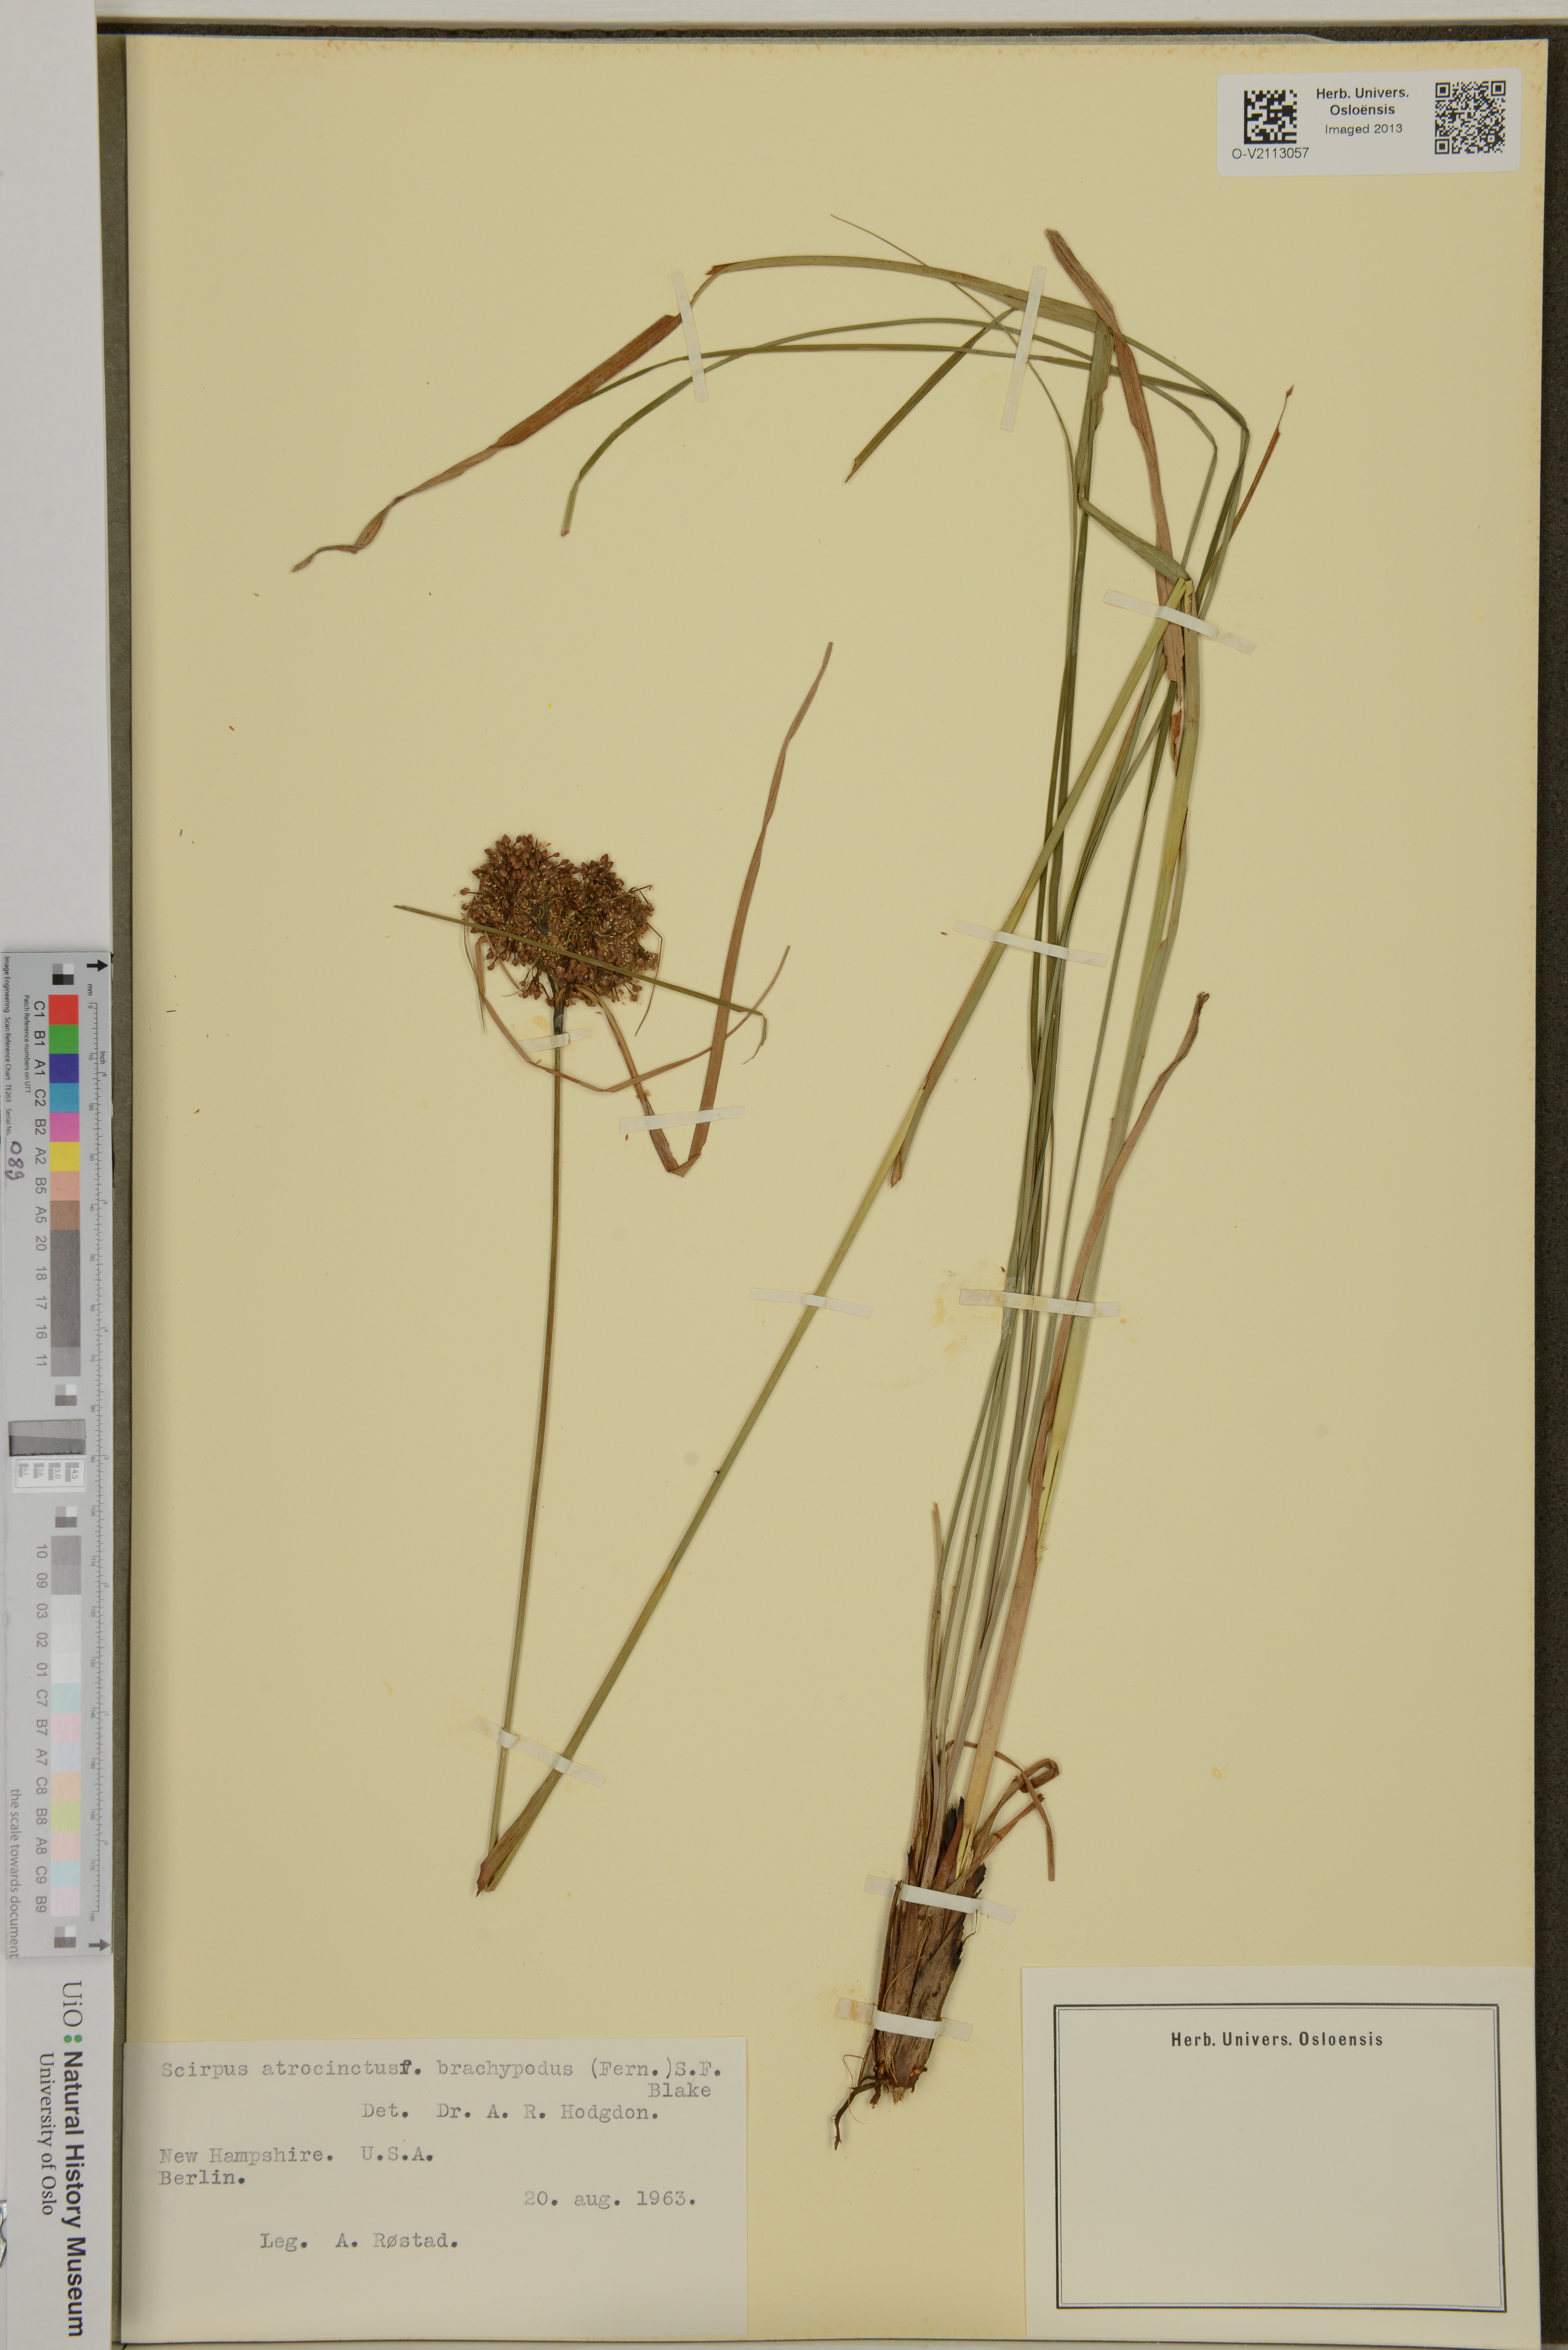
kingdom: Plantae
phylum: Tracheophyta
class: Liliopsida
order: Poales
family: Cyperaceae
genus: Scirpus
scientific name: Scirpus atrocinctus
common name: Black-girdled bulrush
